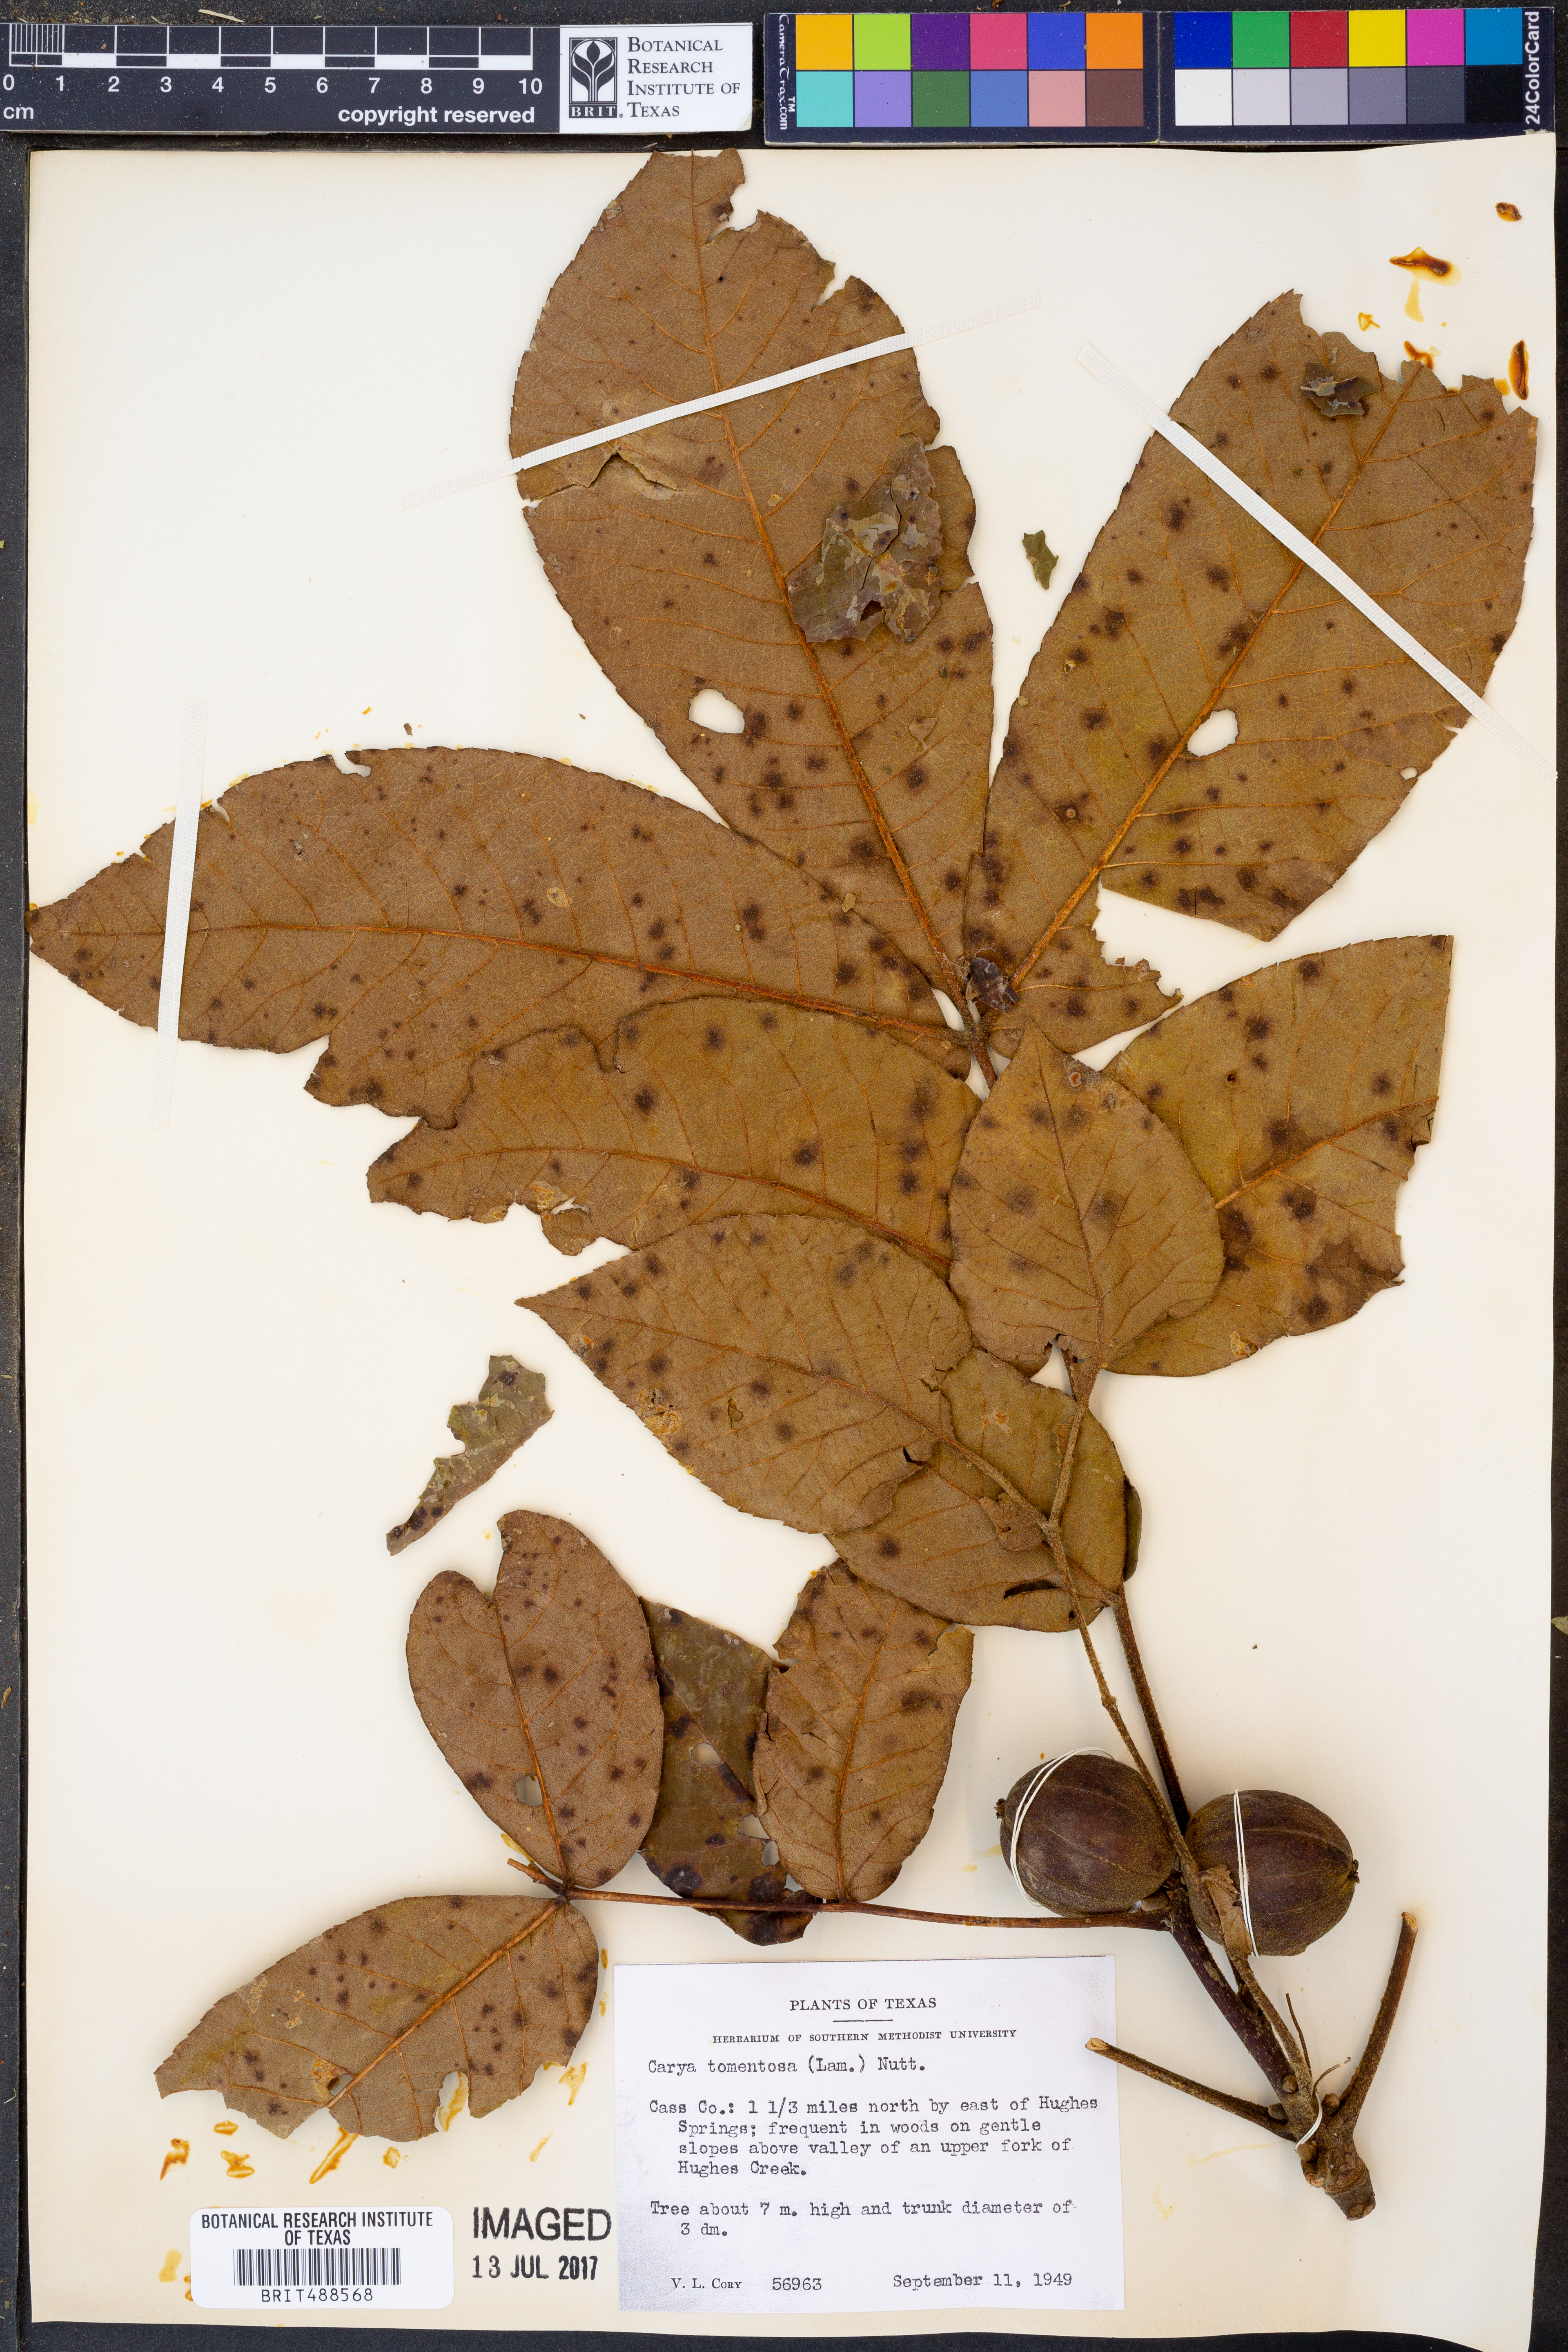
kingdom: Plantae
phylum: Tracheophyta
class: Magnoliopsida
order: Fagales
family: Juglandaceae
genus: Carya
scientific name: Carya alba
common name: Mockernut hickory
